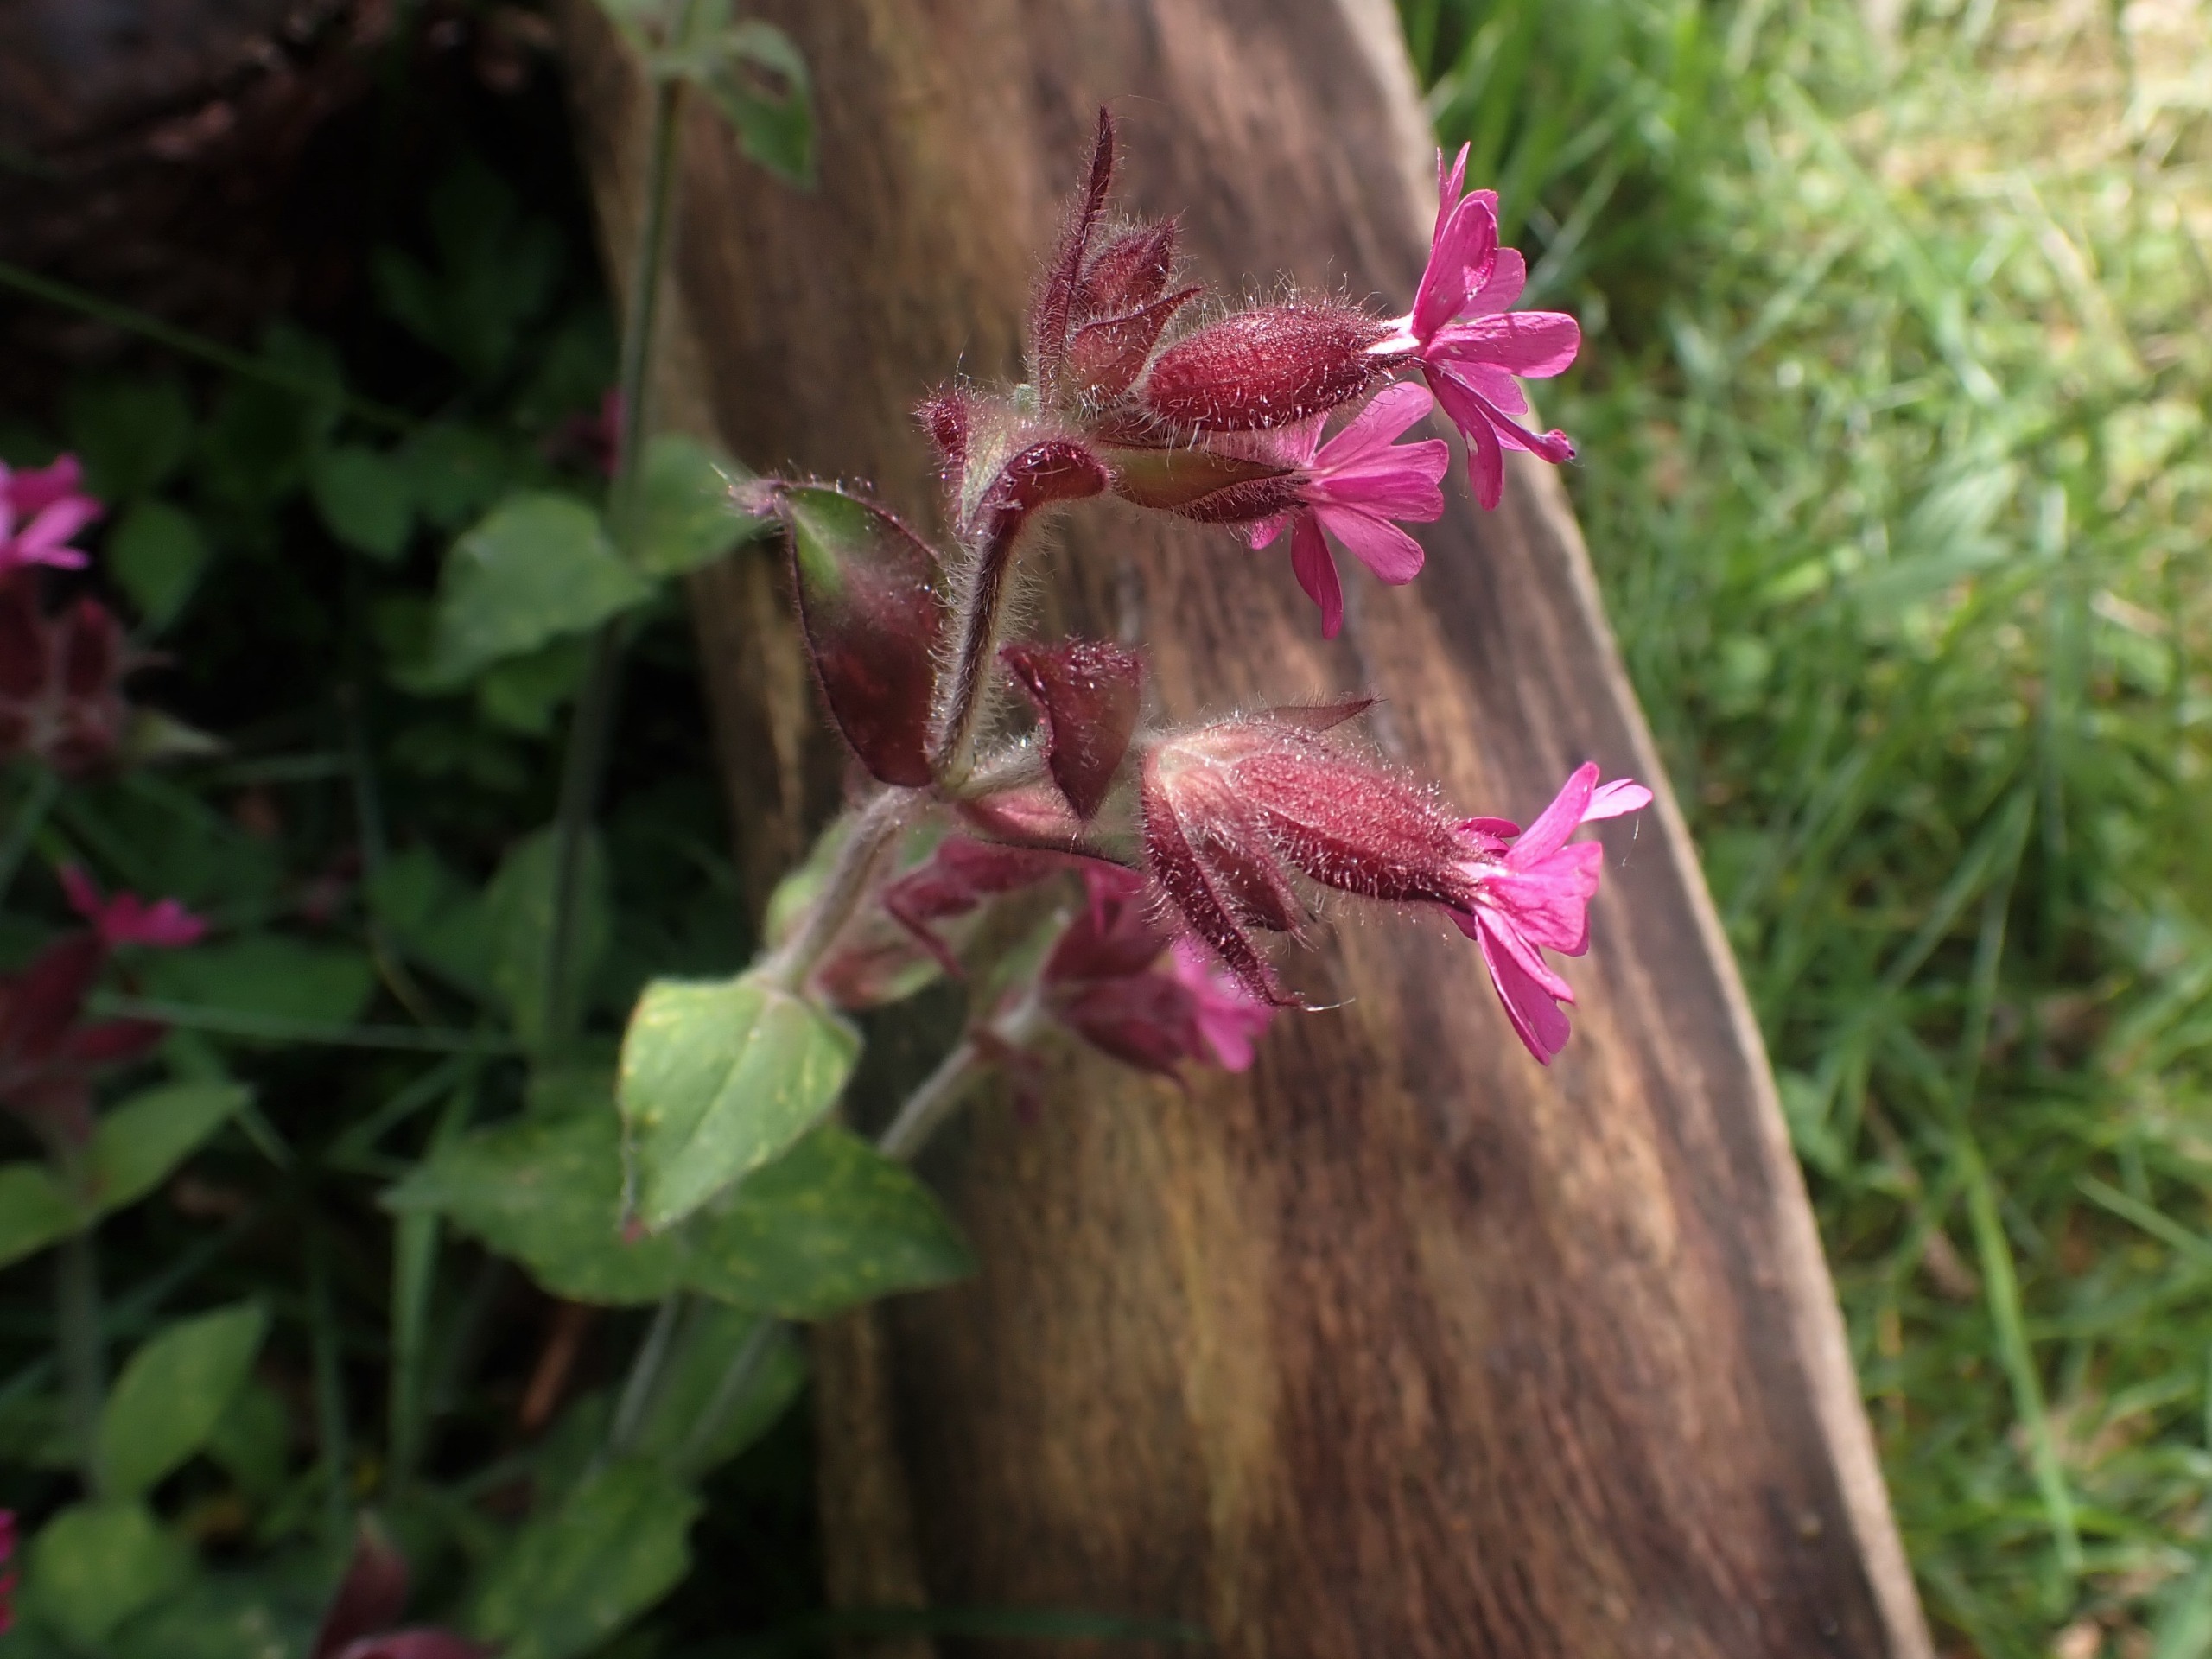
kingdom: Plantae
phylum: Tracheophyta
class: Magnoliopsida
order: Caryophyllales
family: Caryophyllaceae
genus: Silene
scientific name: Silene dioica
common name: Dagpragtstjerne
